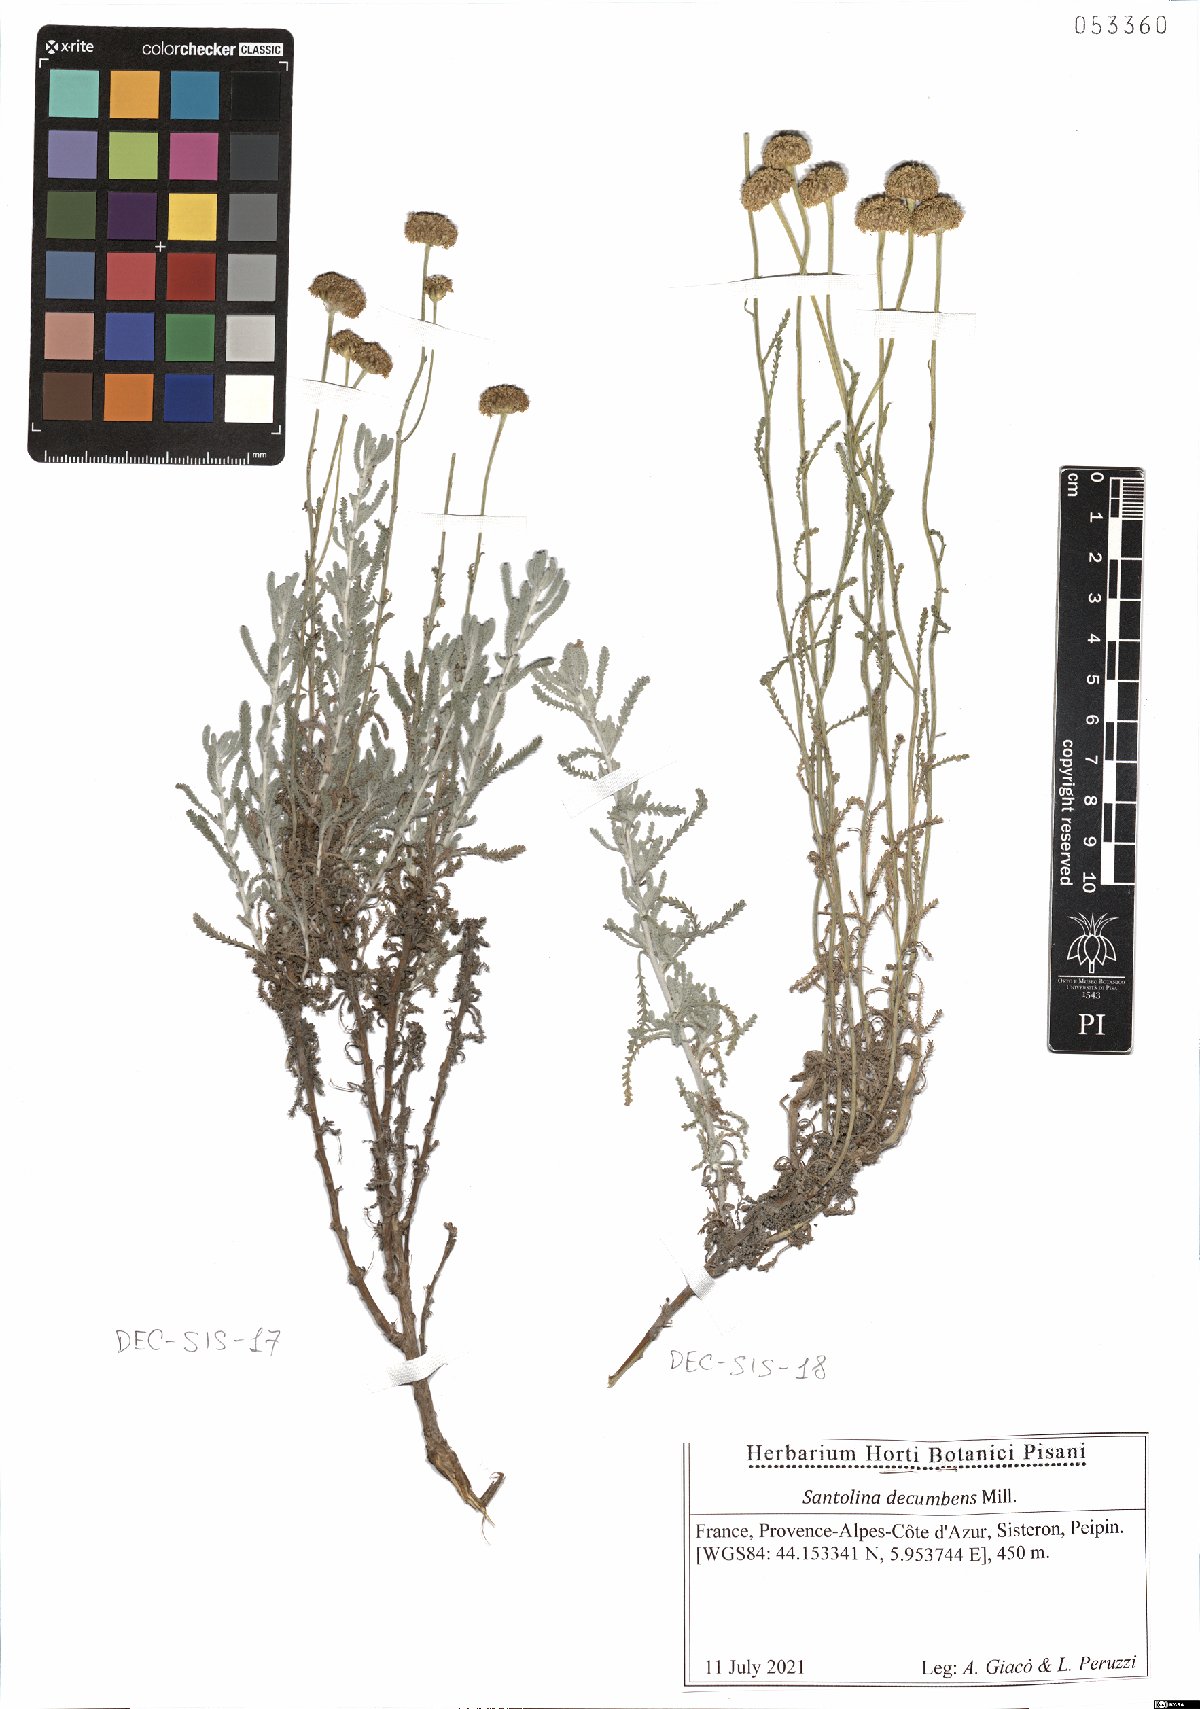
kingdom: Plantae
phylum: Tracheophyta
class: Magnoliopsida
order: Asterales
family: Asteraceae
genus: Santolina
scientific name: Santolina decumbens
